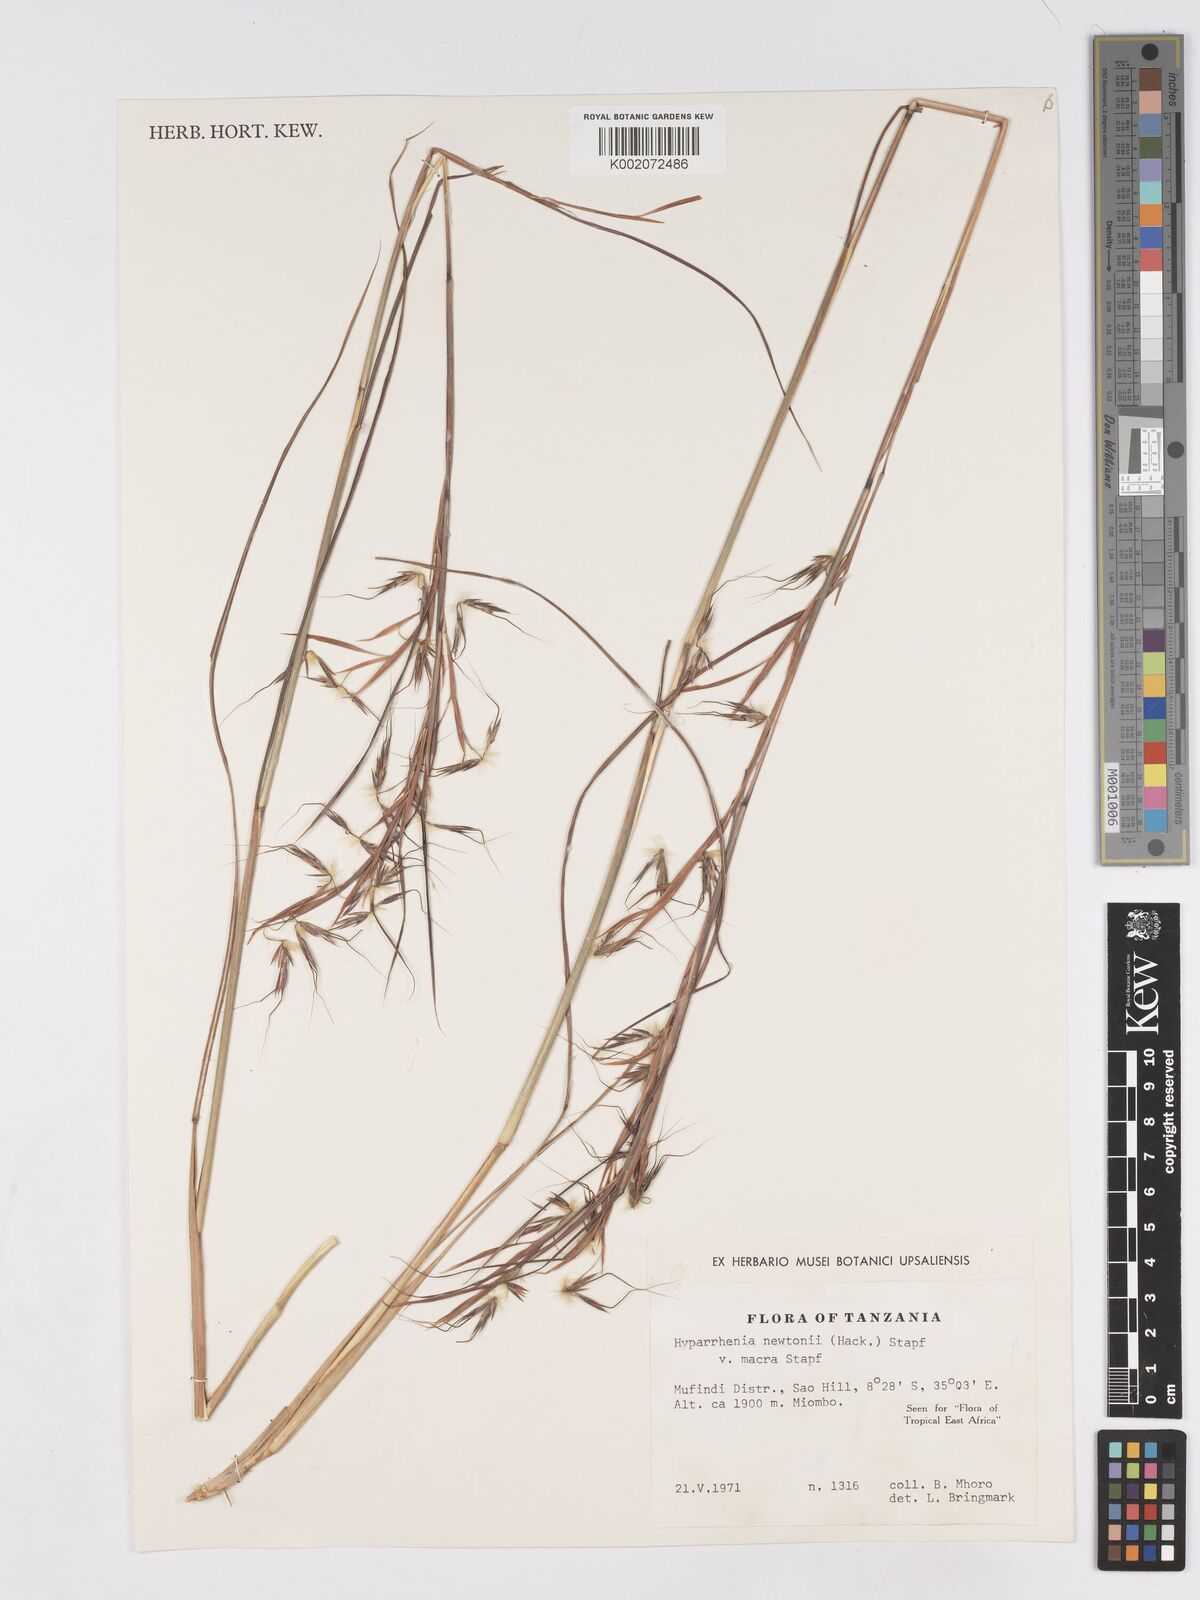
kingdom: Plantae
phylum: Tracheophyta
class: Liliopsida
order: Poales
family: Poaceae
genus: Hyparrhenia
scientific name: Hyparrhenia newtonii
